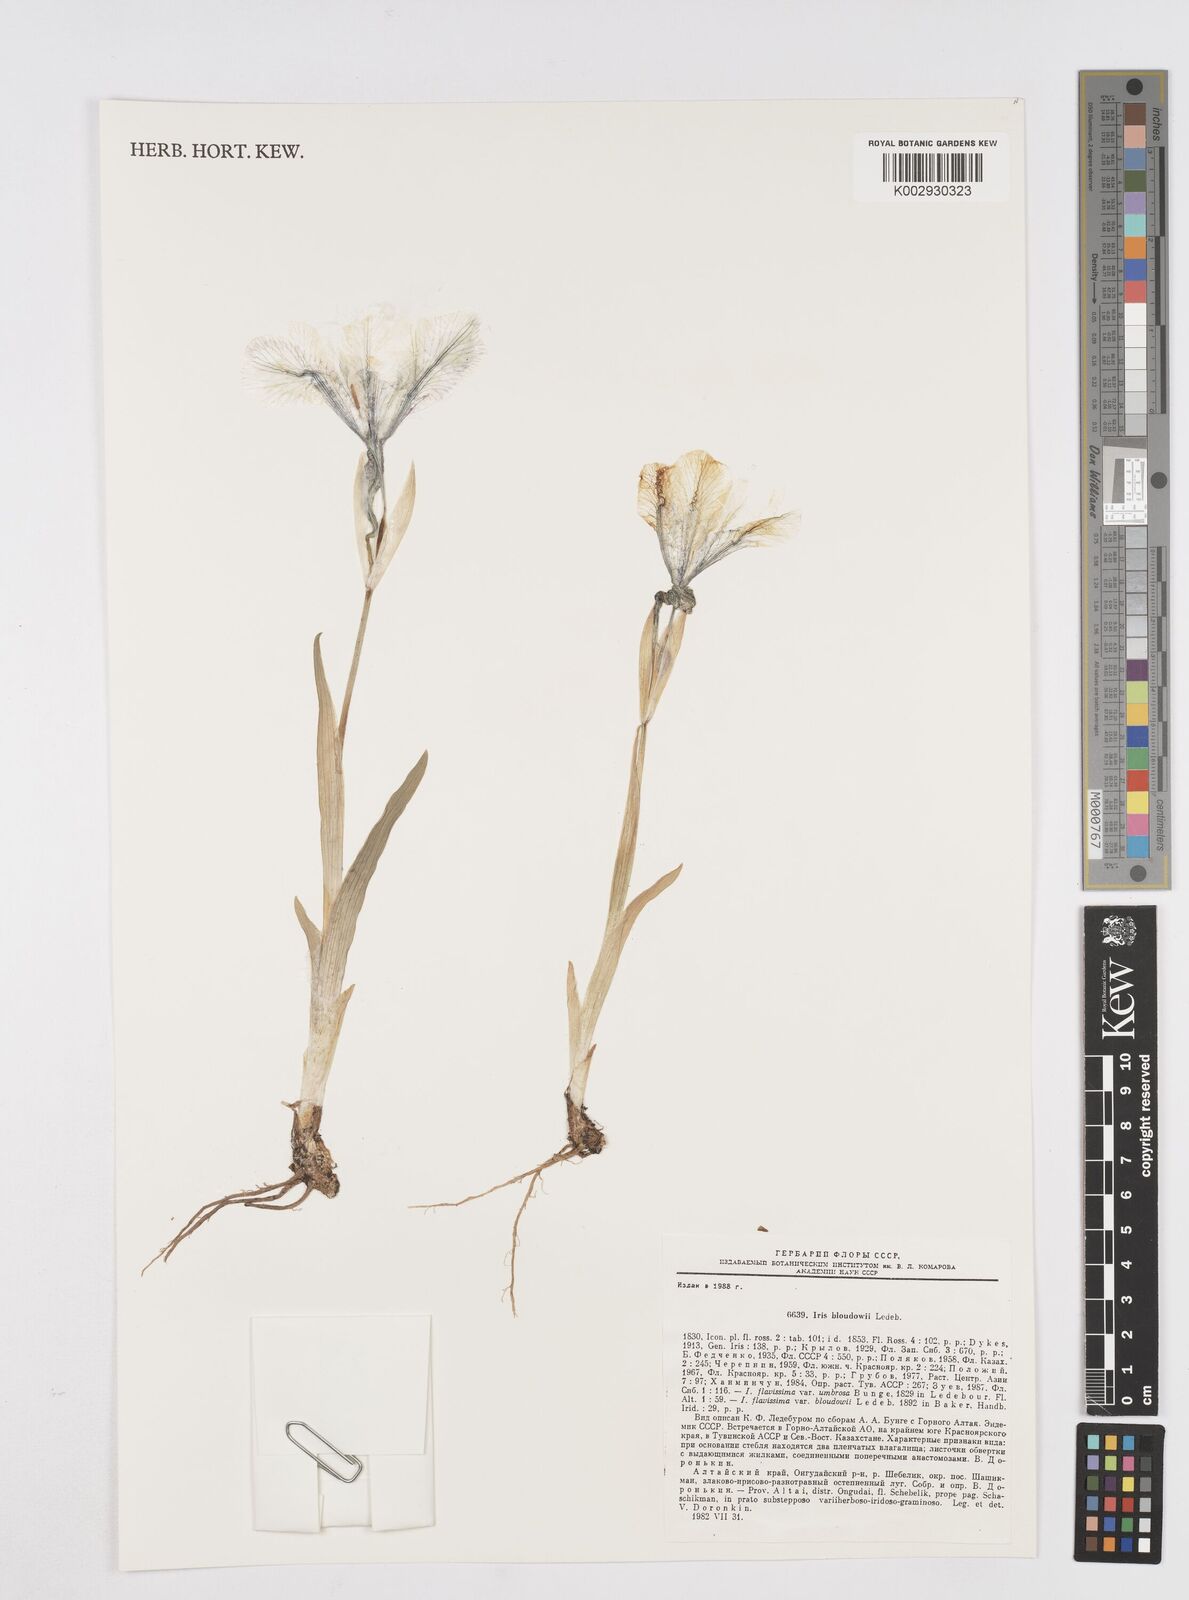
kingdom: Plantae
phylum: Tracheophyta
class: Liliopsida
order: Asparagales
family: Iridaceae
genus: Iris
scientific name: Iris bloudowii
